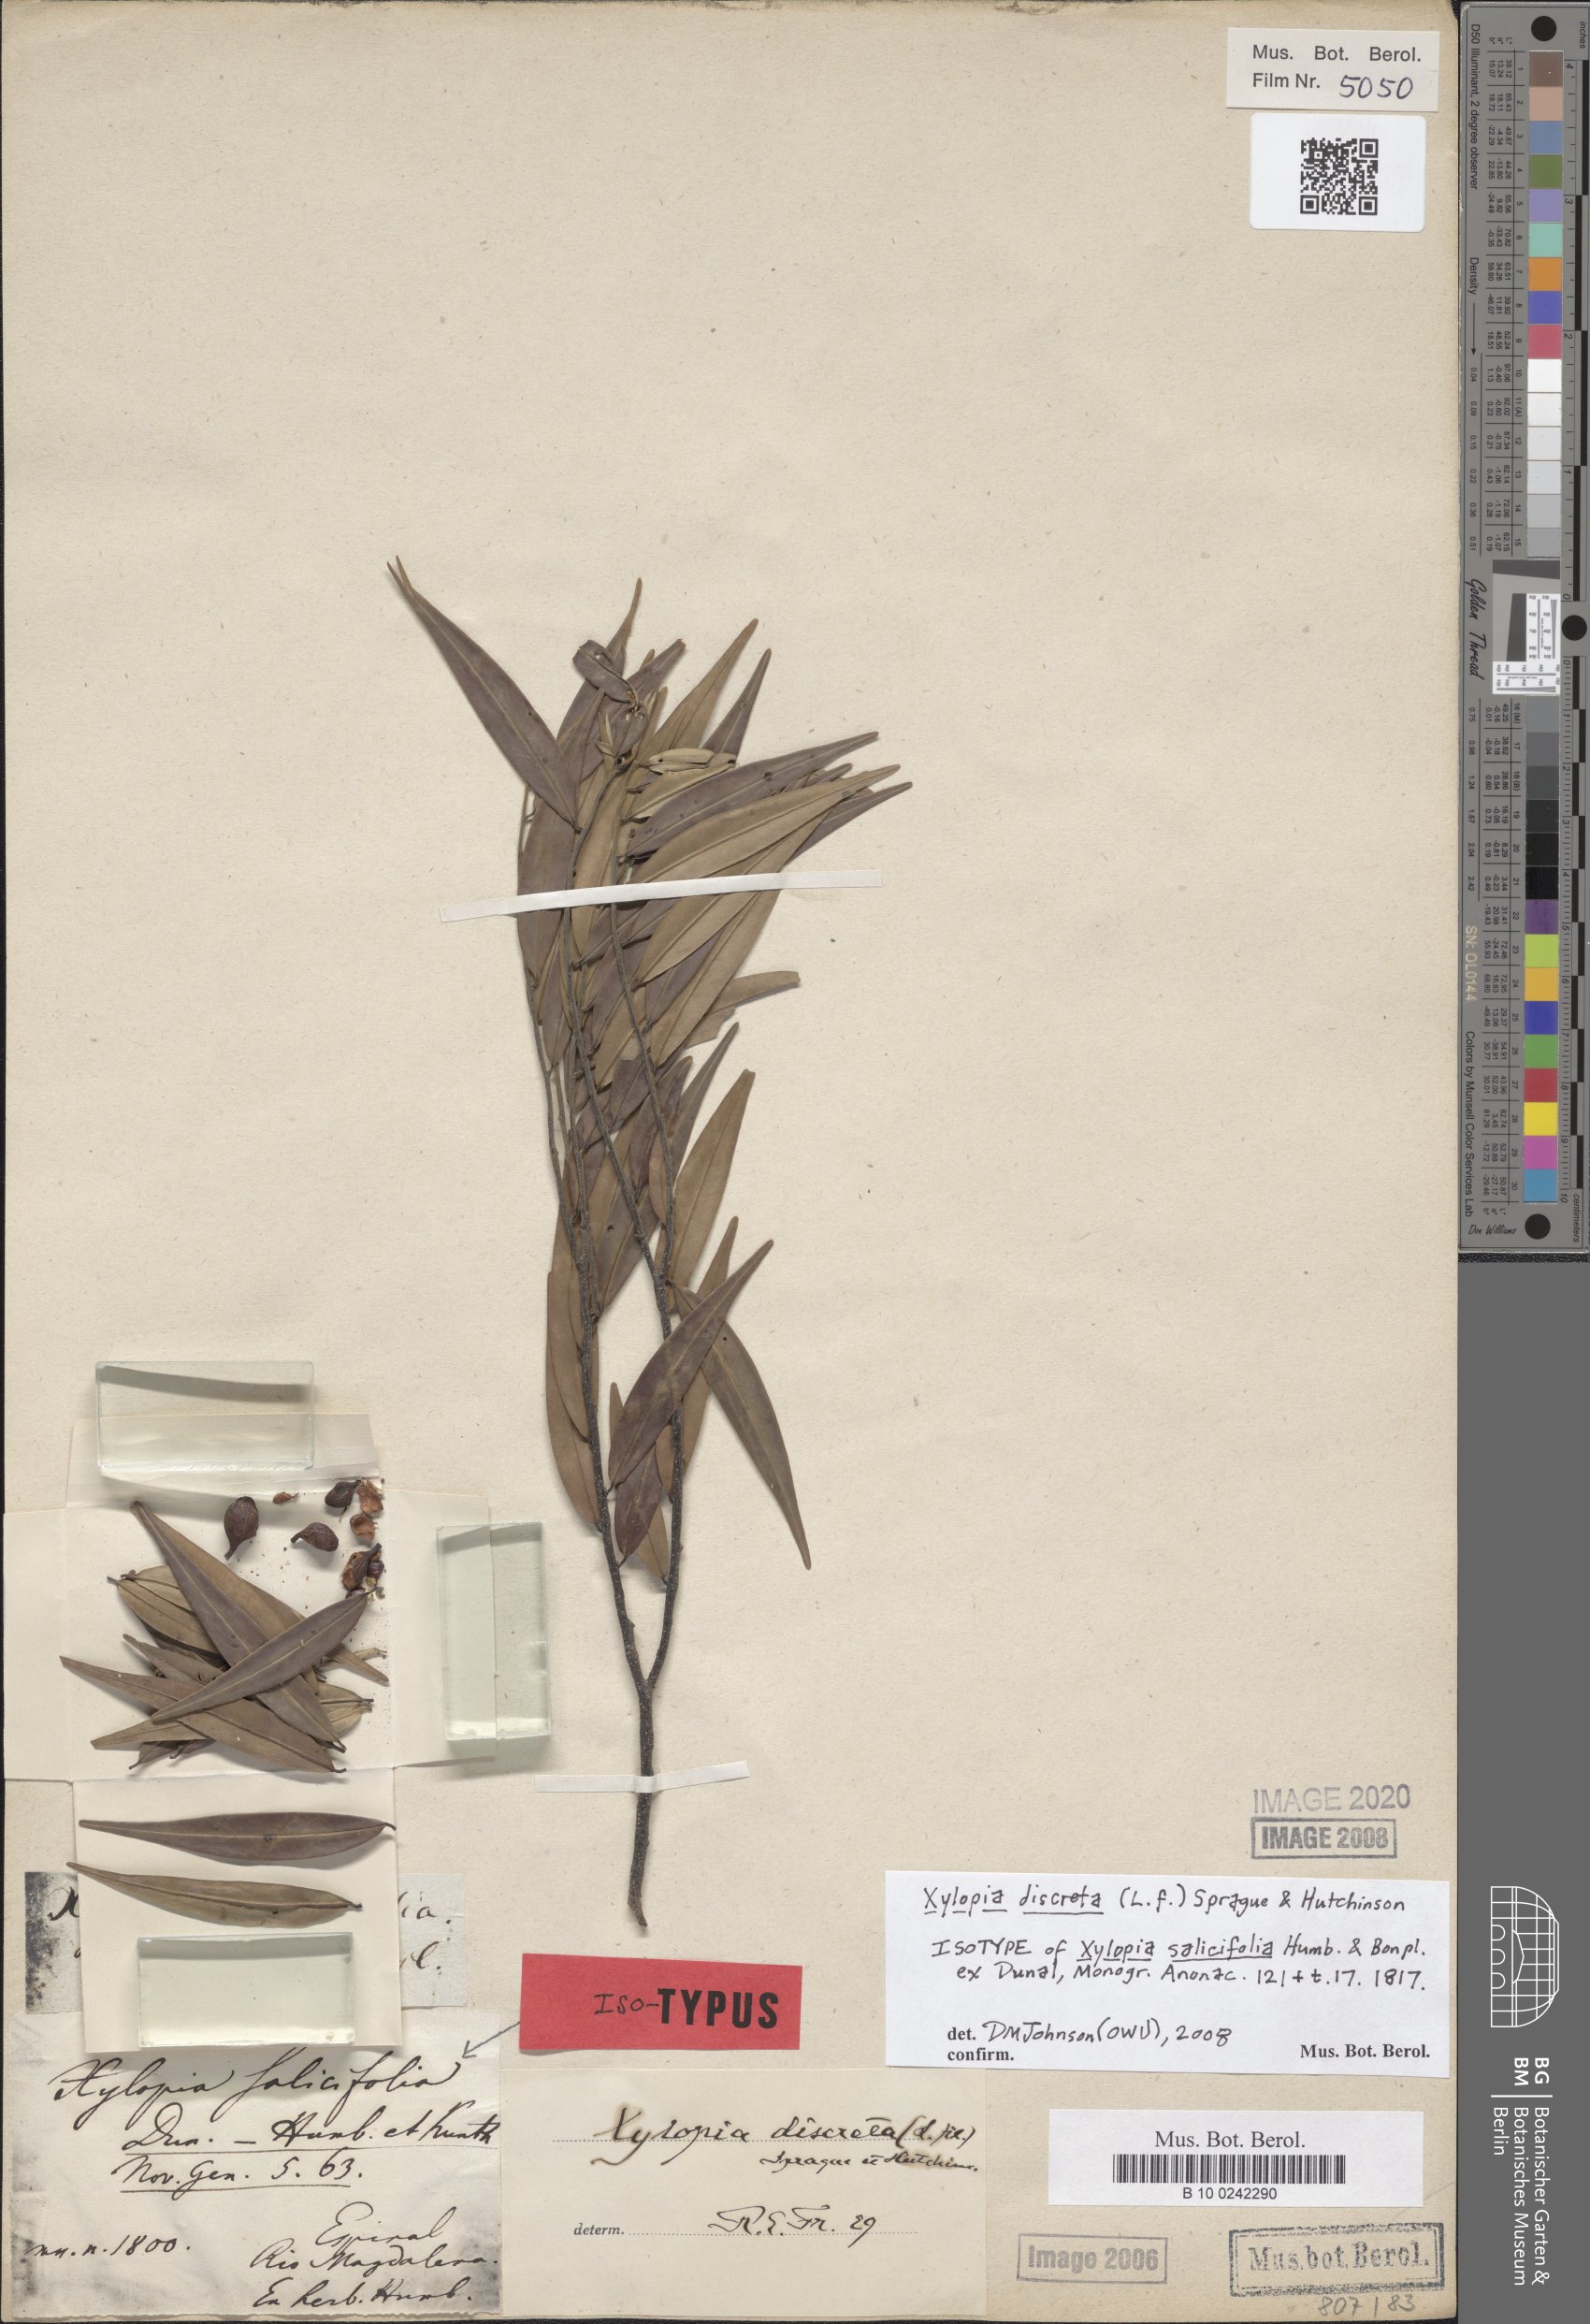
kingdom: Plantae
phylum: Tracheophyta
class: Magnoliopsida
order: Magnoliales
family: Annonaceae
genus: Xylopia
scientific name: Xylopia discreta
